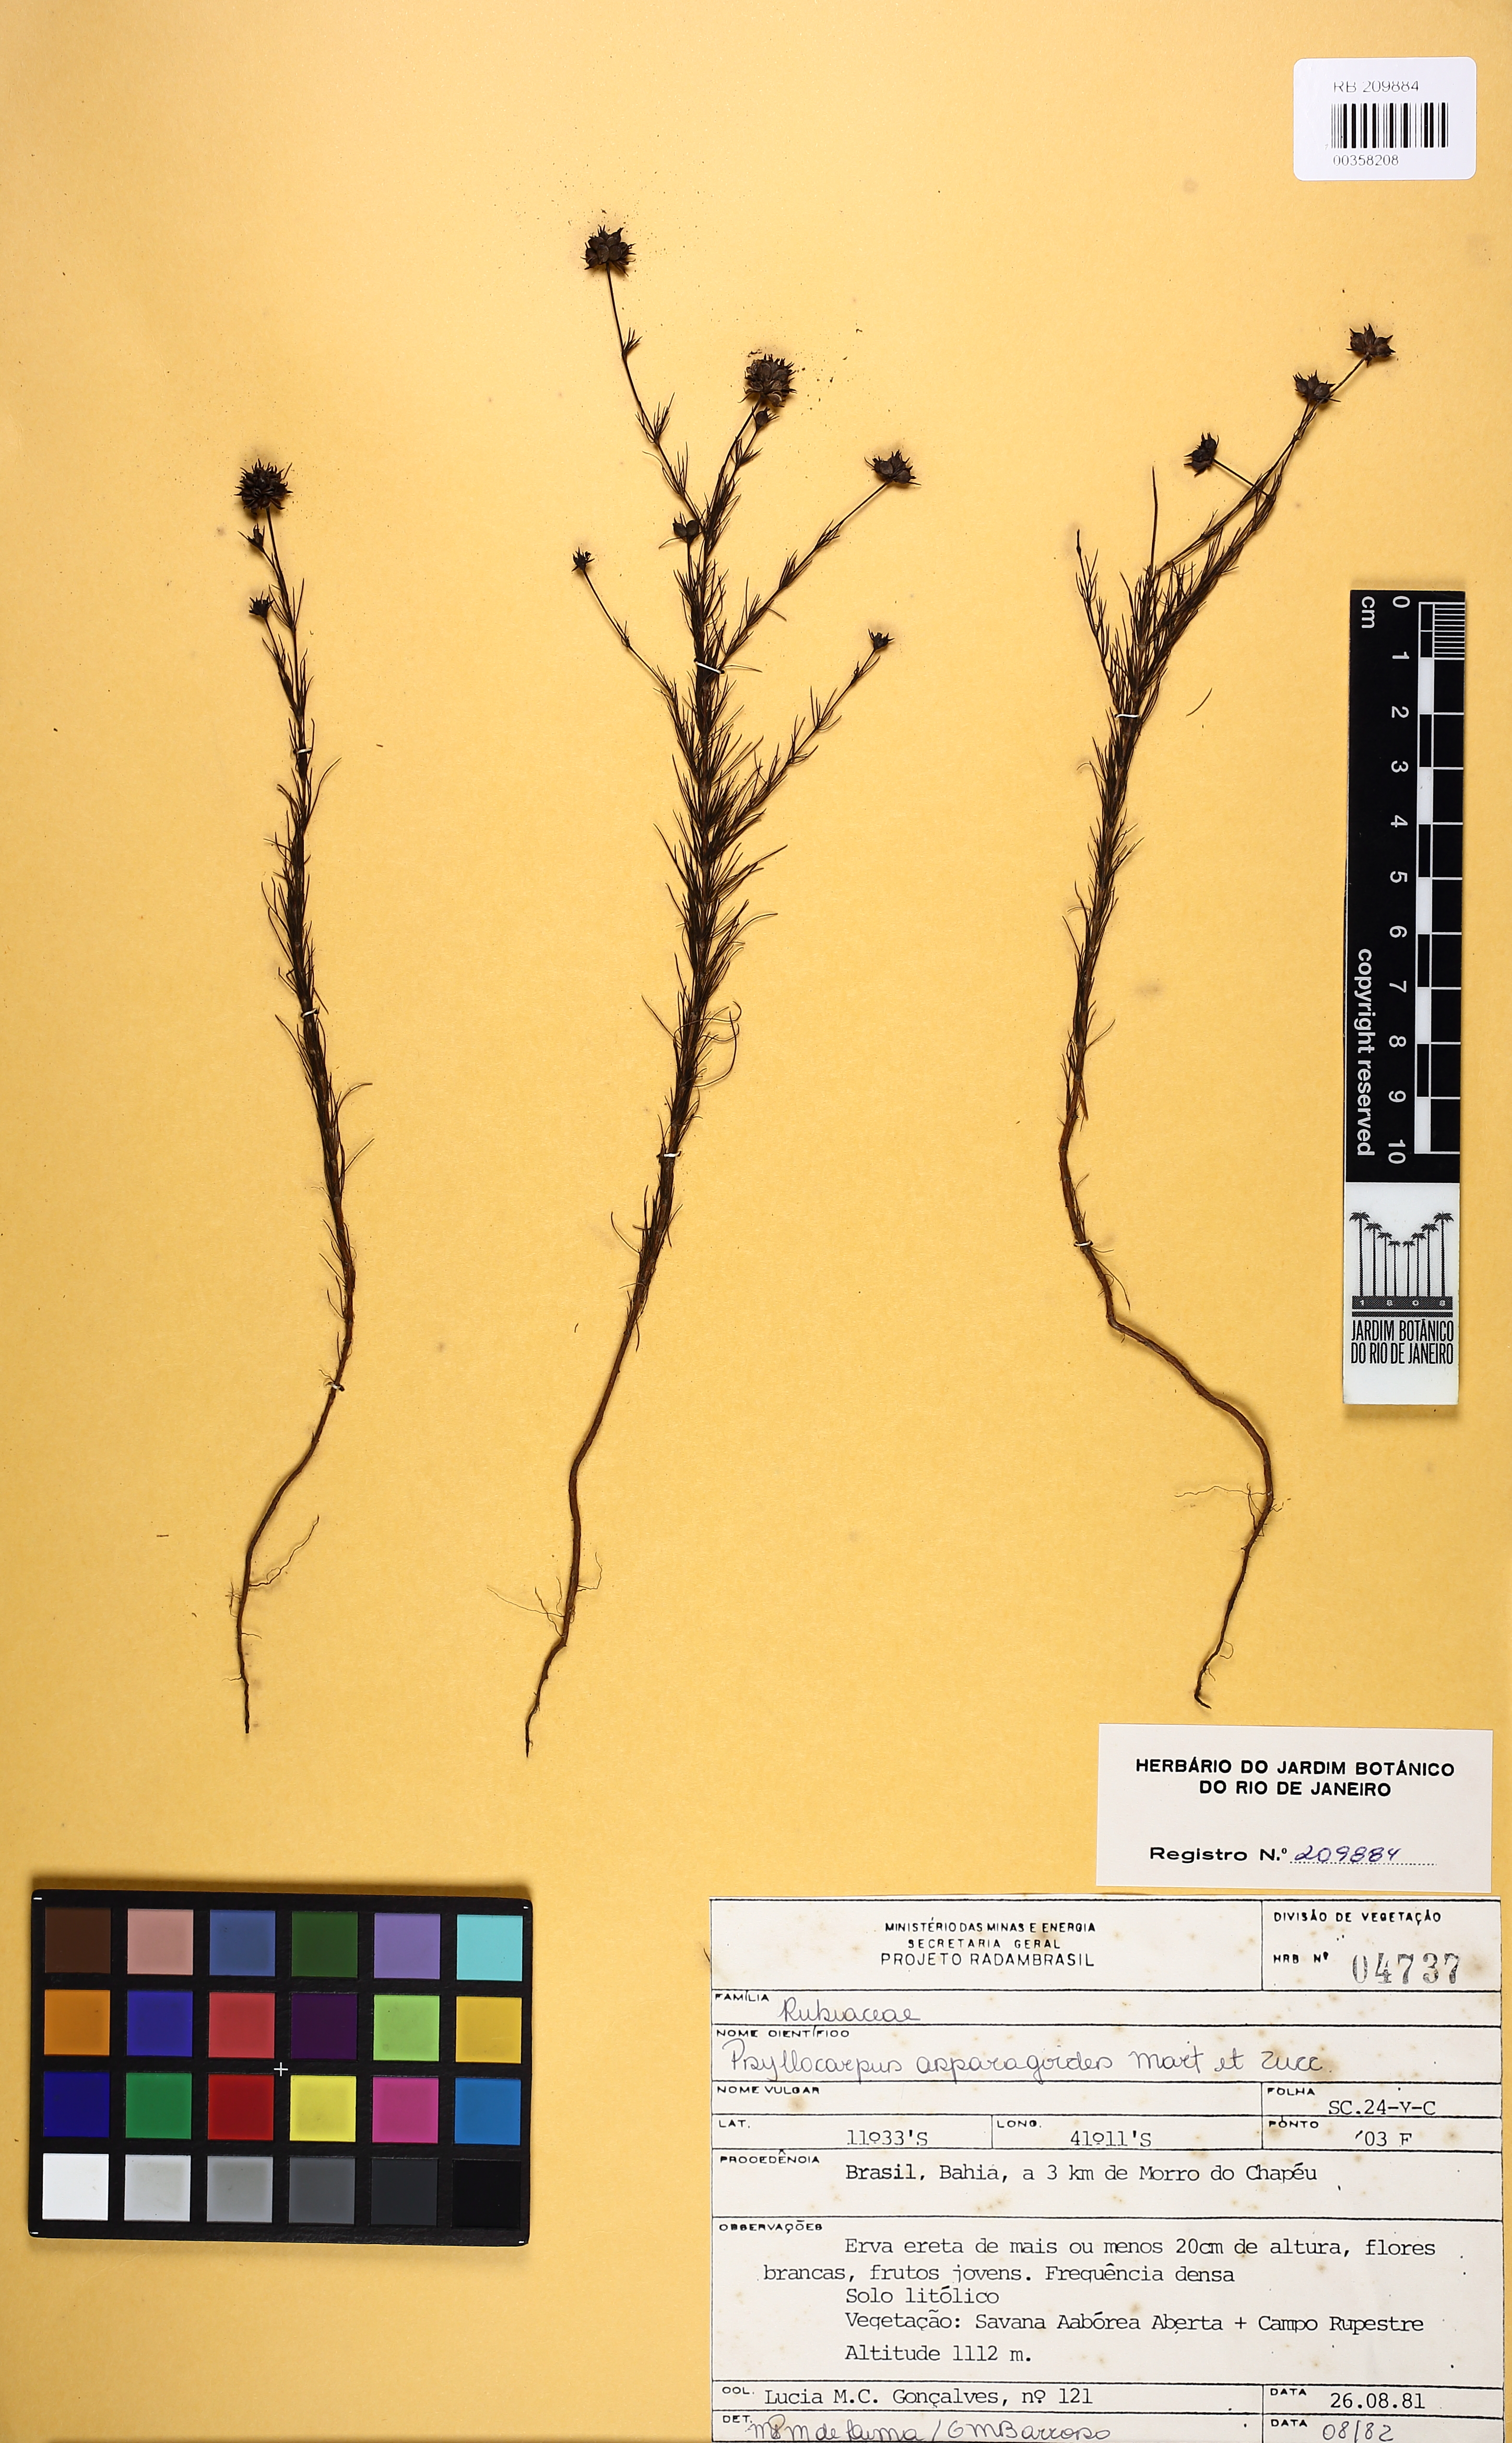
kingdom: Plantae
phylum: Tracheophyta
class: Magnoliopsida
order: Gentianales
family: Rubiaceae
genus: Psyllocarpus
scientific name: Psyllocarpus asparagoides
